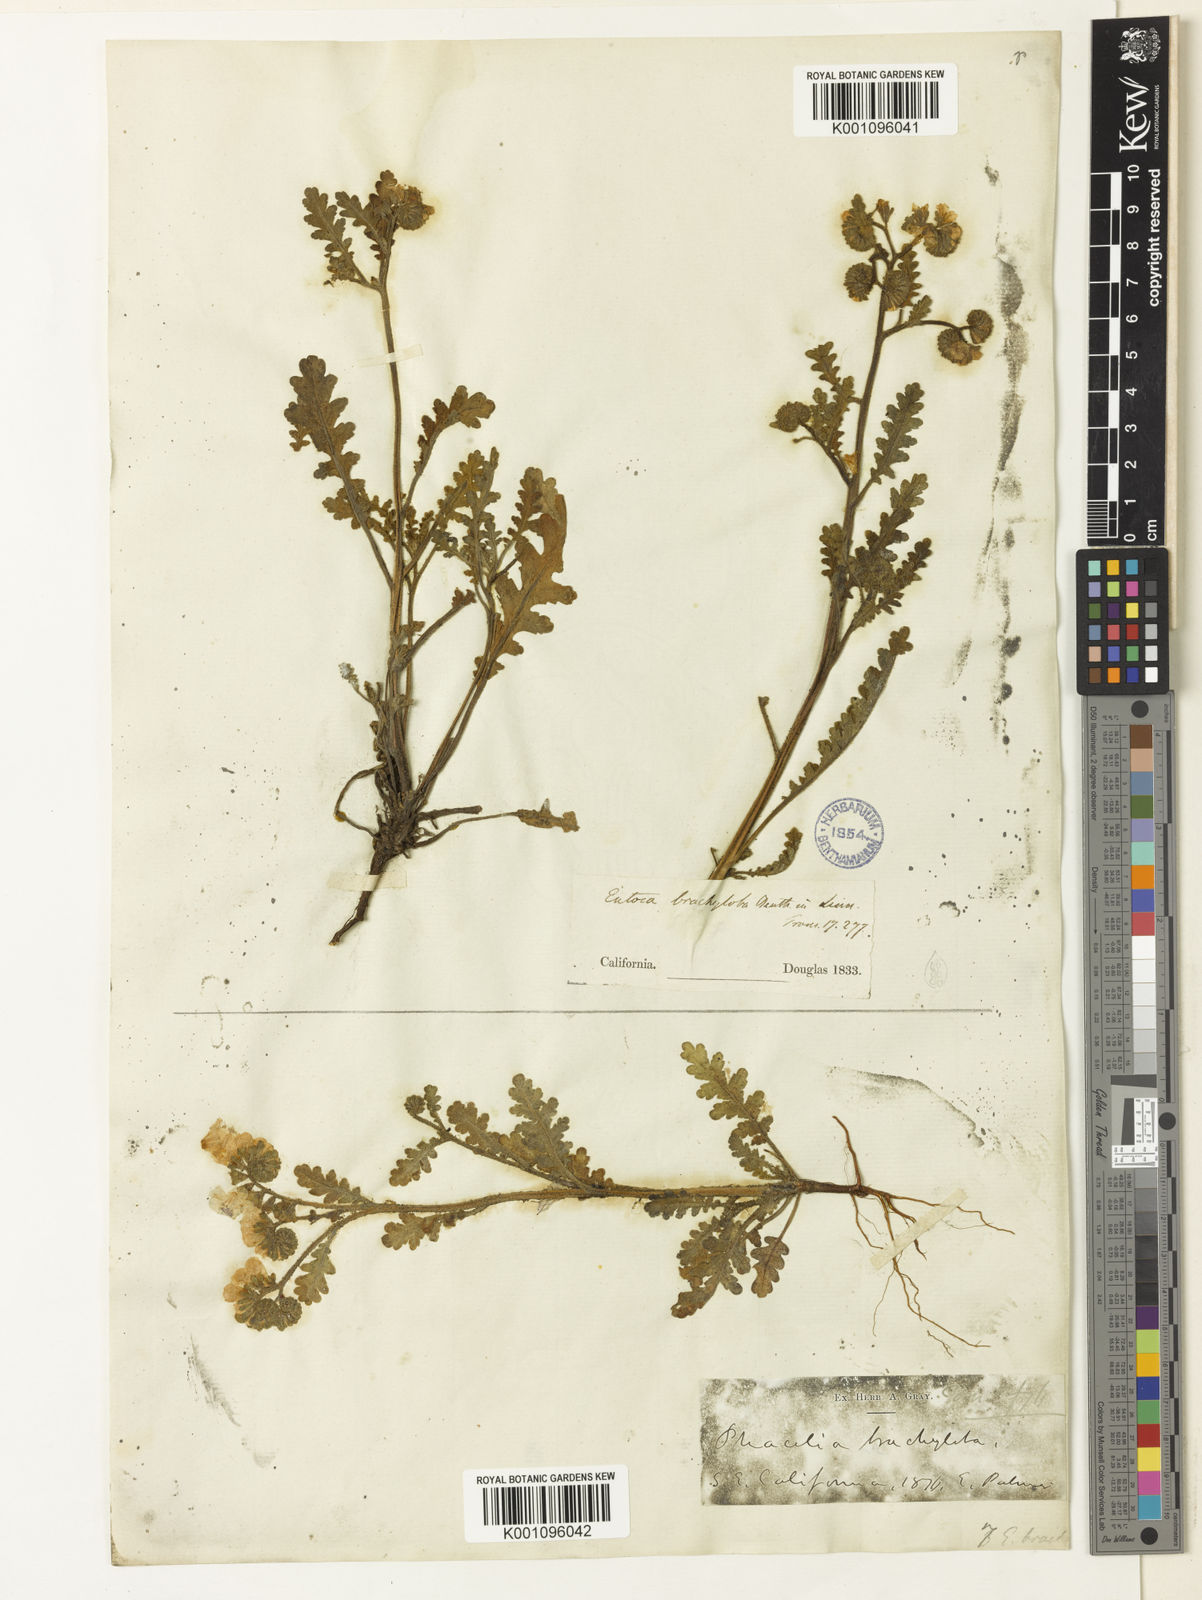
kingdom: Plantae
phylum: Tracheophyta
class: Magnoliopsida
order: Boraginales
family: Hydrophyllaceae
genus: Phacelia
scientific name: Phacelia brachyantha
